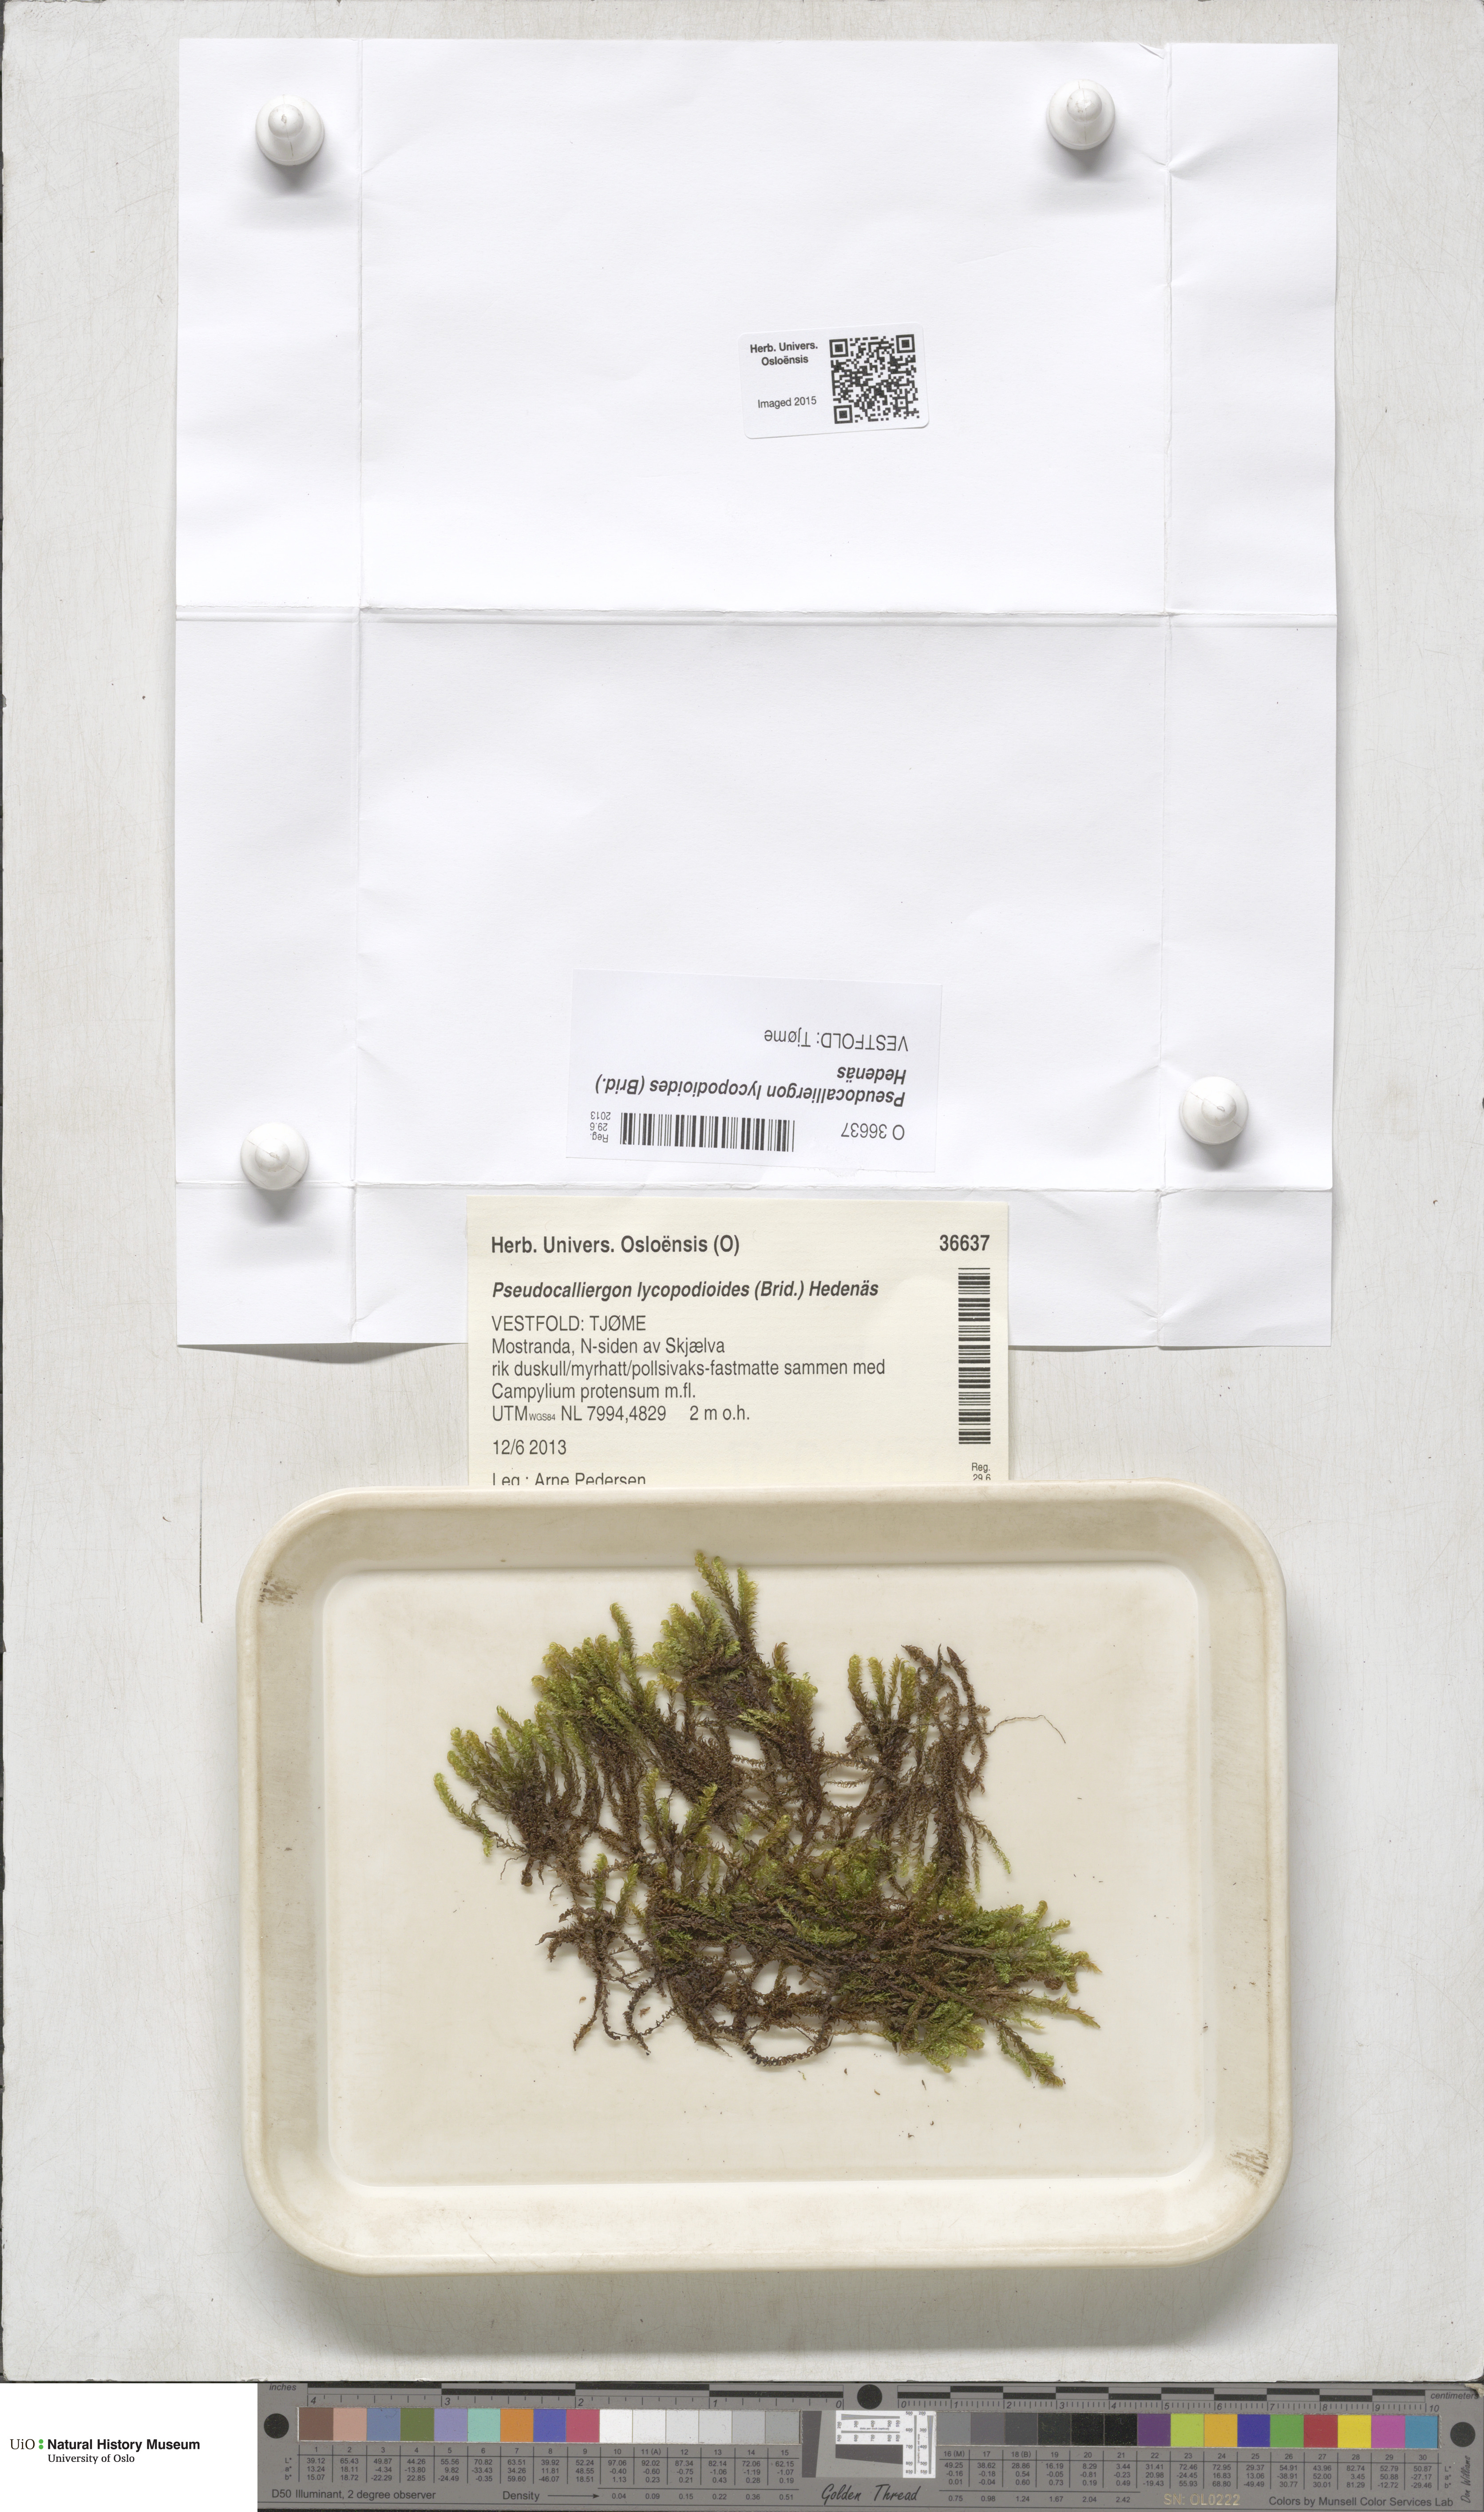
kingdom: Plantae
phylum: Bryophyta
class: Bryopsida
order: Hypnales
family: Amblystegiaceae
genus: Drepanocladus
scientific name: Drepanocladus lycopodioides
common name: Large hook-moss
